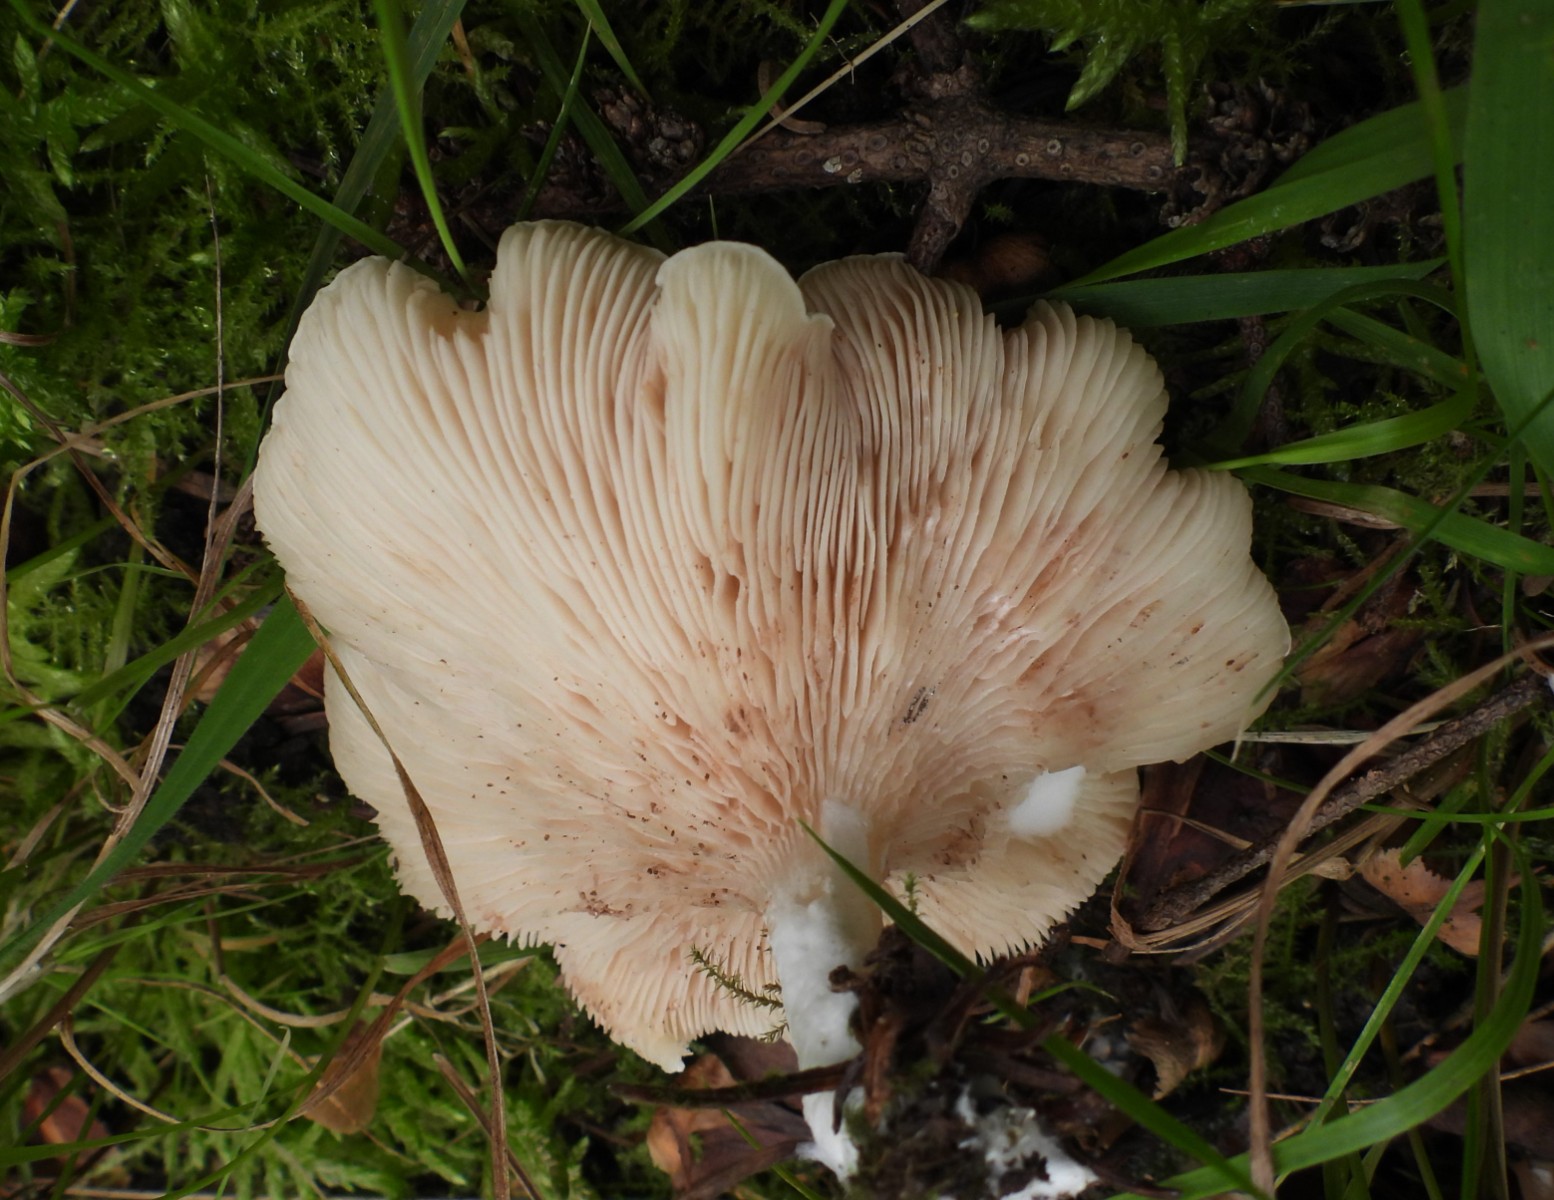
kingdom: Fungi
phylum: Basidiomycota
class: Agaricomycetes
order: Agaricales
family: Entolomataceae
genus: Clitopilus
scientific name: Clitopilus prunulus
